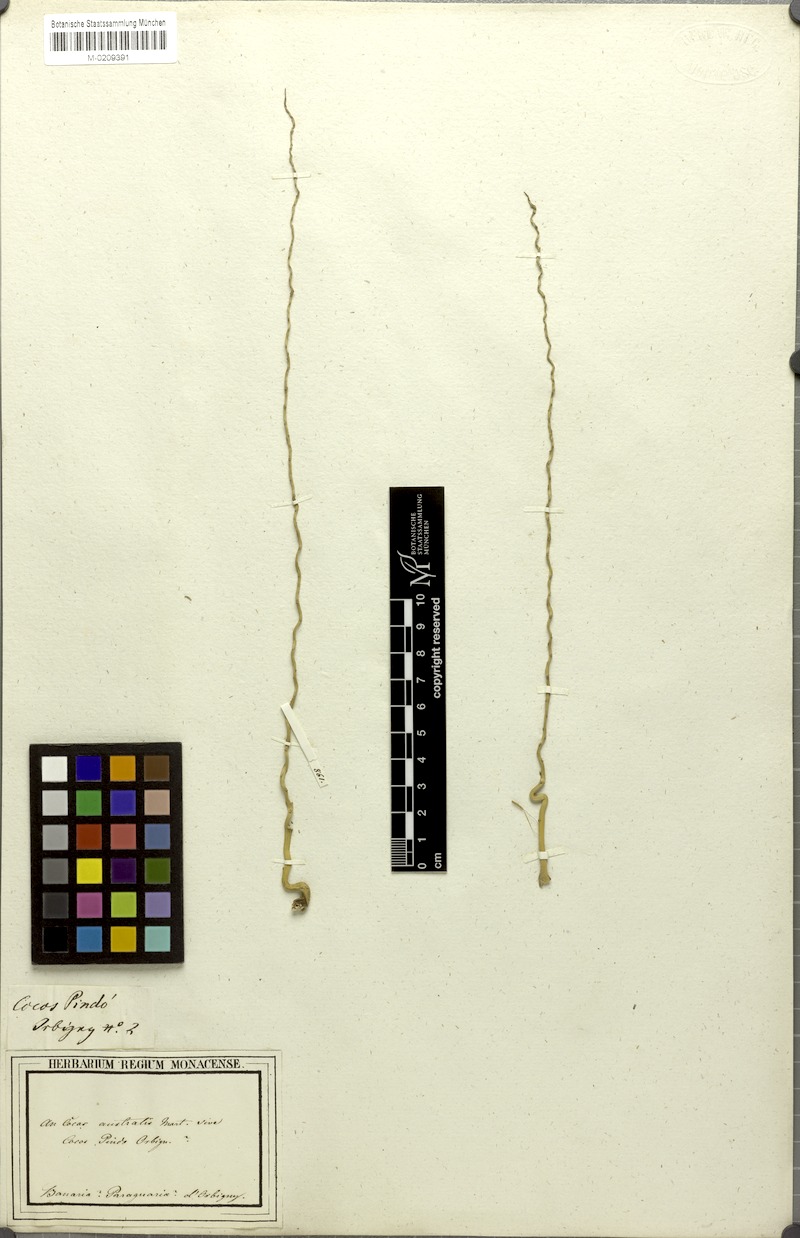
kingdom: Plantae
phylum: Tracheophyta
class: Liliopsida
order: Arecales
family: Arecaceae
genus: Syagrus
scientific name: Syagrus romanzoffiana
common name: Queen palm
